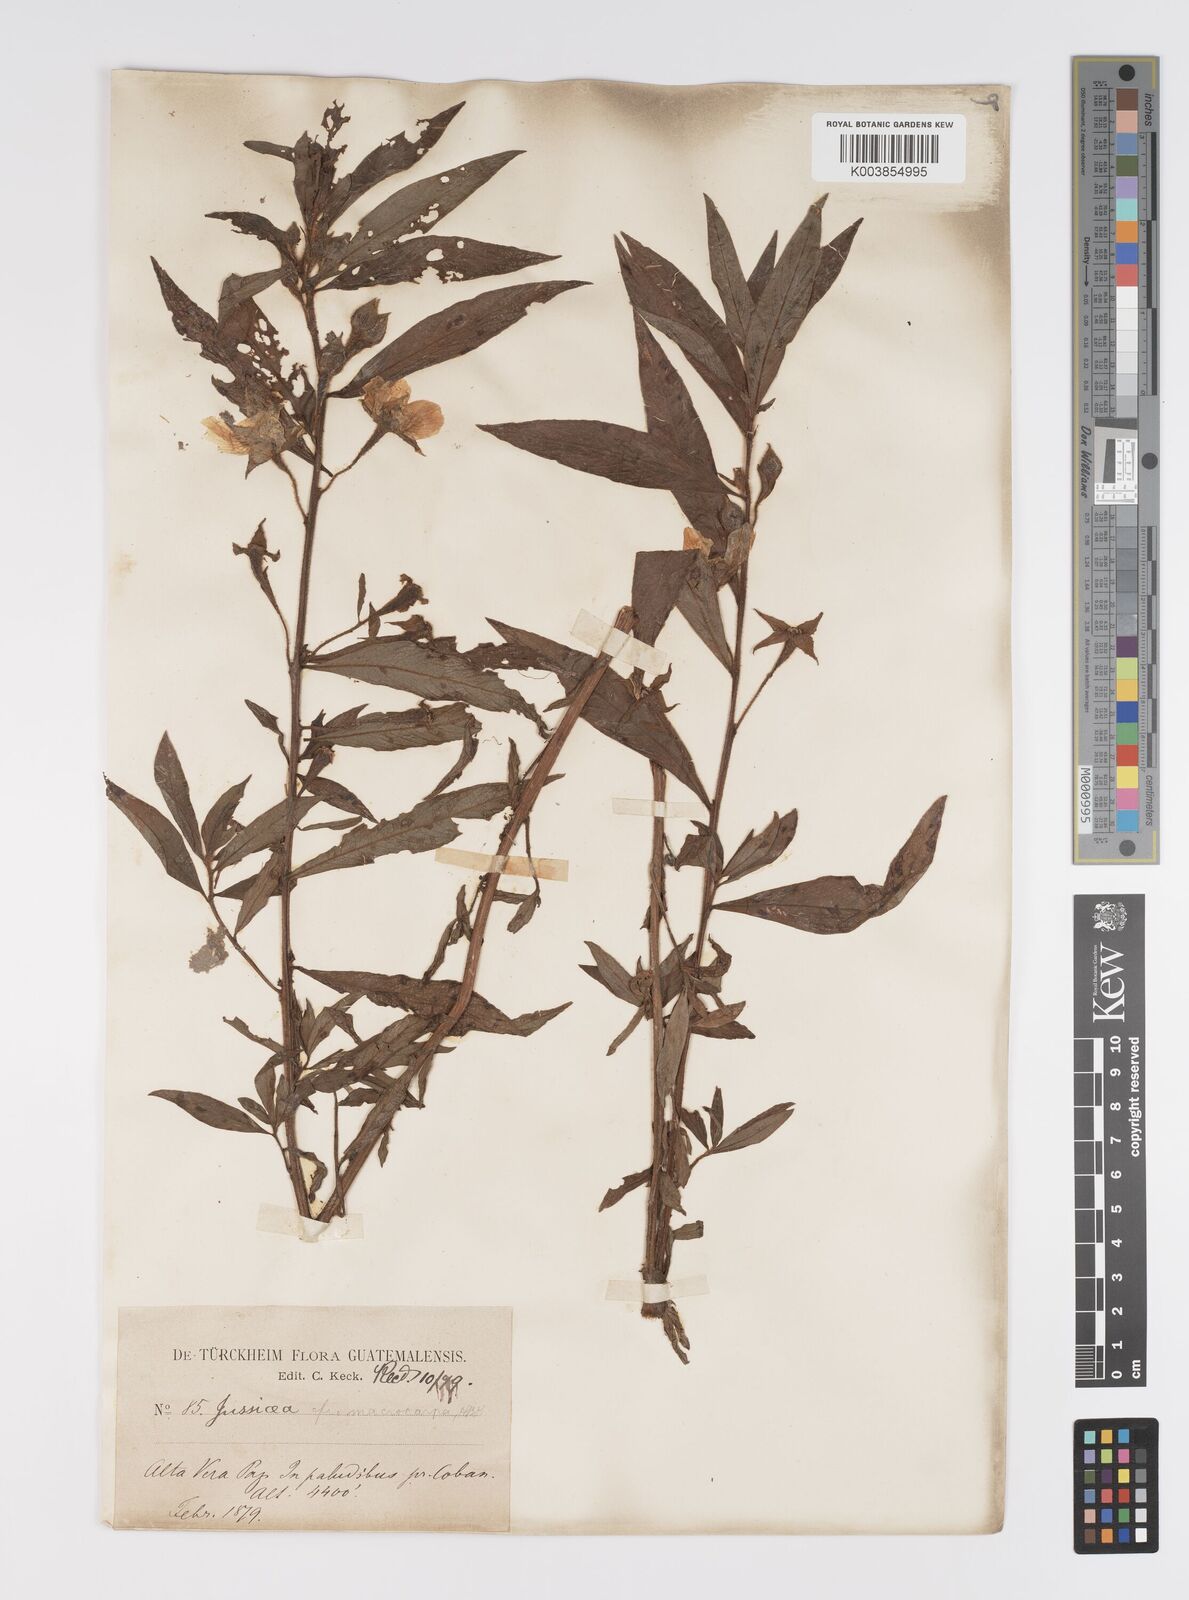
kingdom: Plantae
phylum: Tracheophyta
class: Magnoliopsida
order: Myrtales
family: Onagraceae
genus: Ludwigia
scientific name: Ludwigia peruviana
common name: Peruvian primrose-willow
